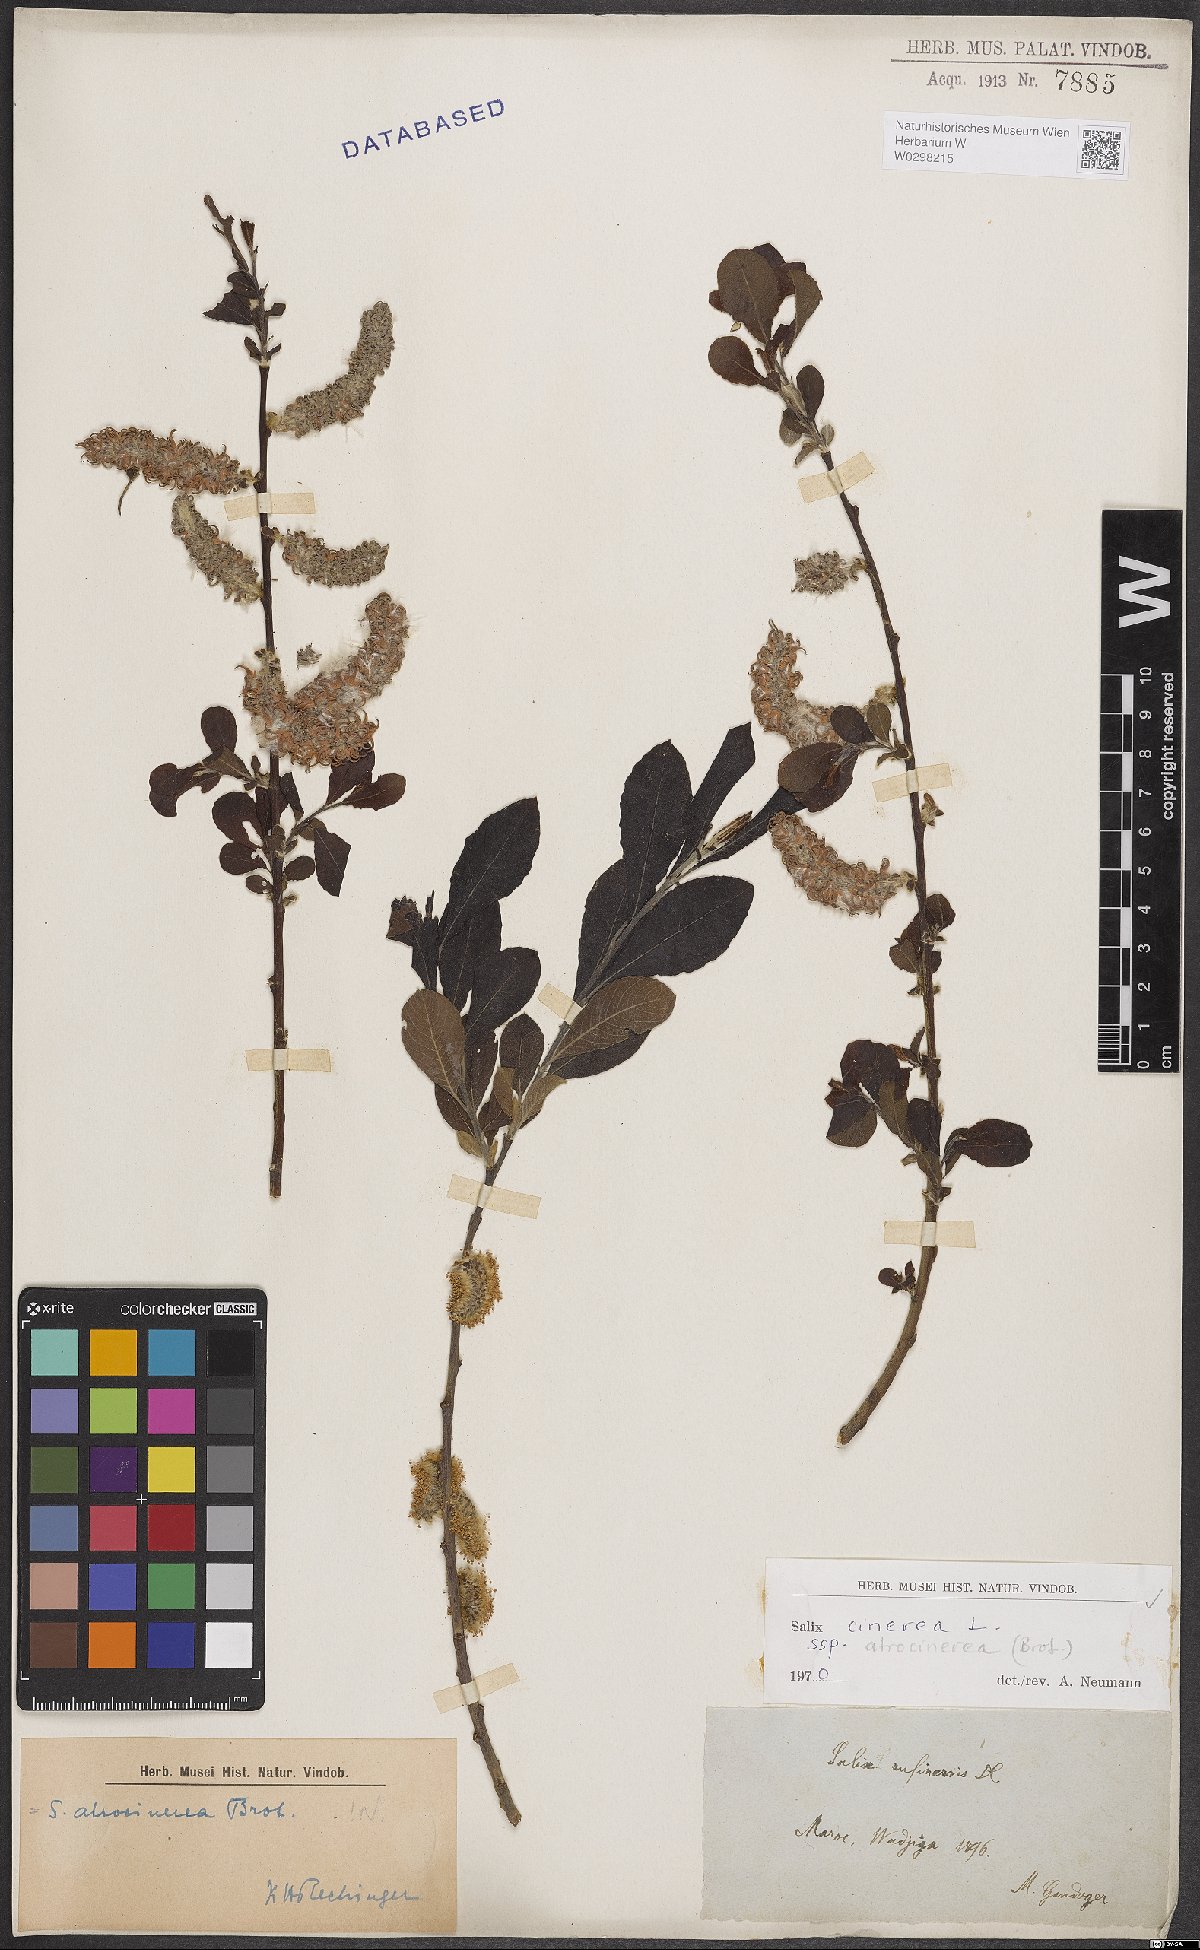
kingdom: Plantae
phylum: Tracheophyta
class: Magnoliopsida
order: Malpighiales
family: Salicaceae
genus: Salix
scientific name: Salix atrocinerea
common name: Rusty willow
